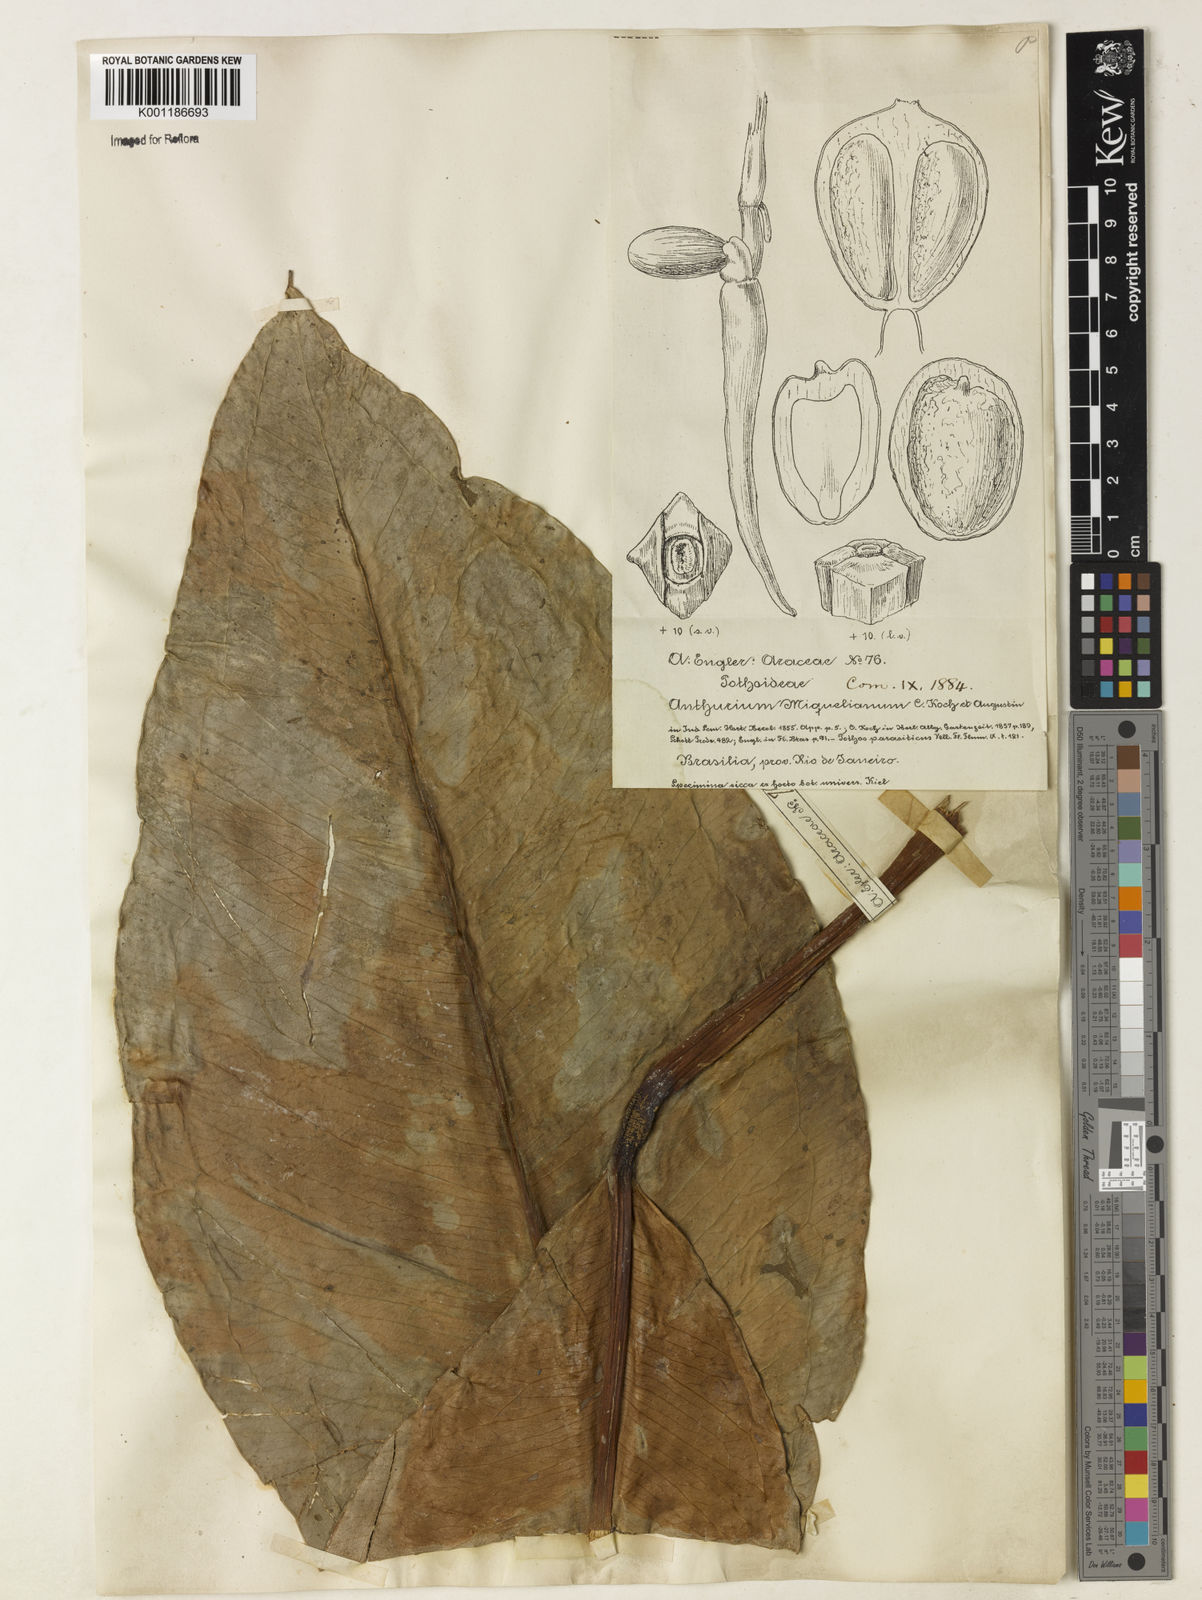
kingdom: Plantae
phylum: Tracheophyta
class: Liliopsida
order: Alismatales
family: Araceae
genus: Anthurium
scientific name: Anthurium parasiticum
